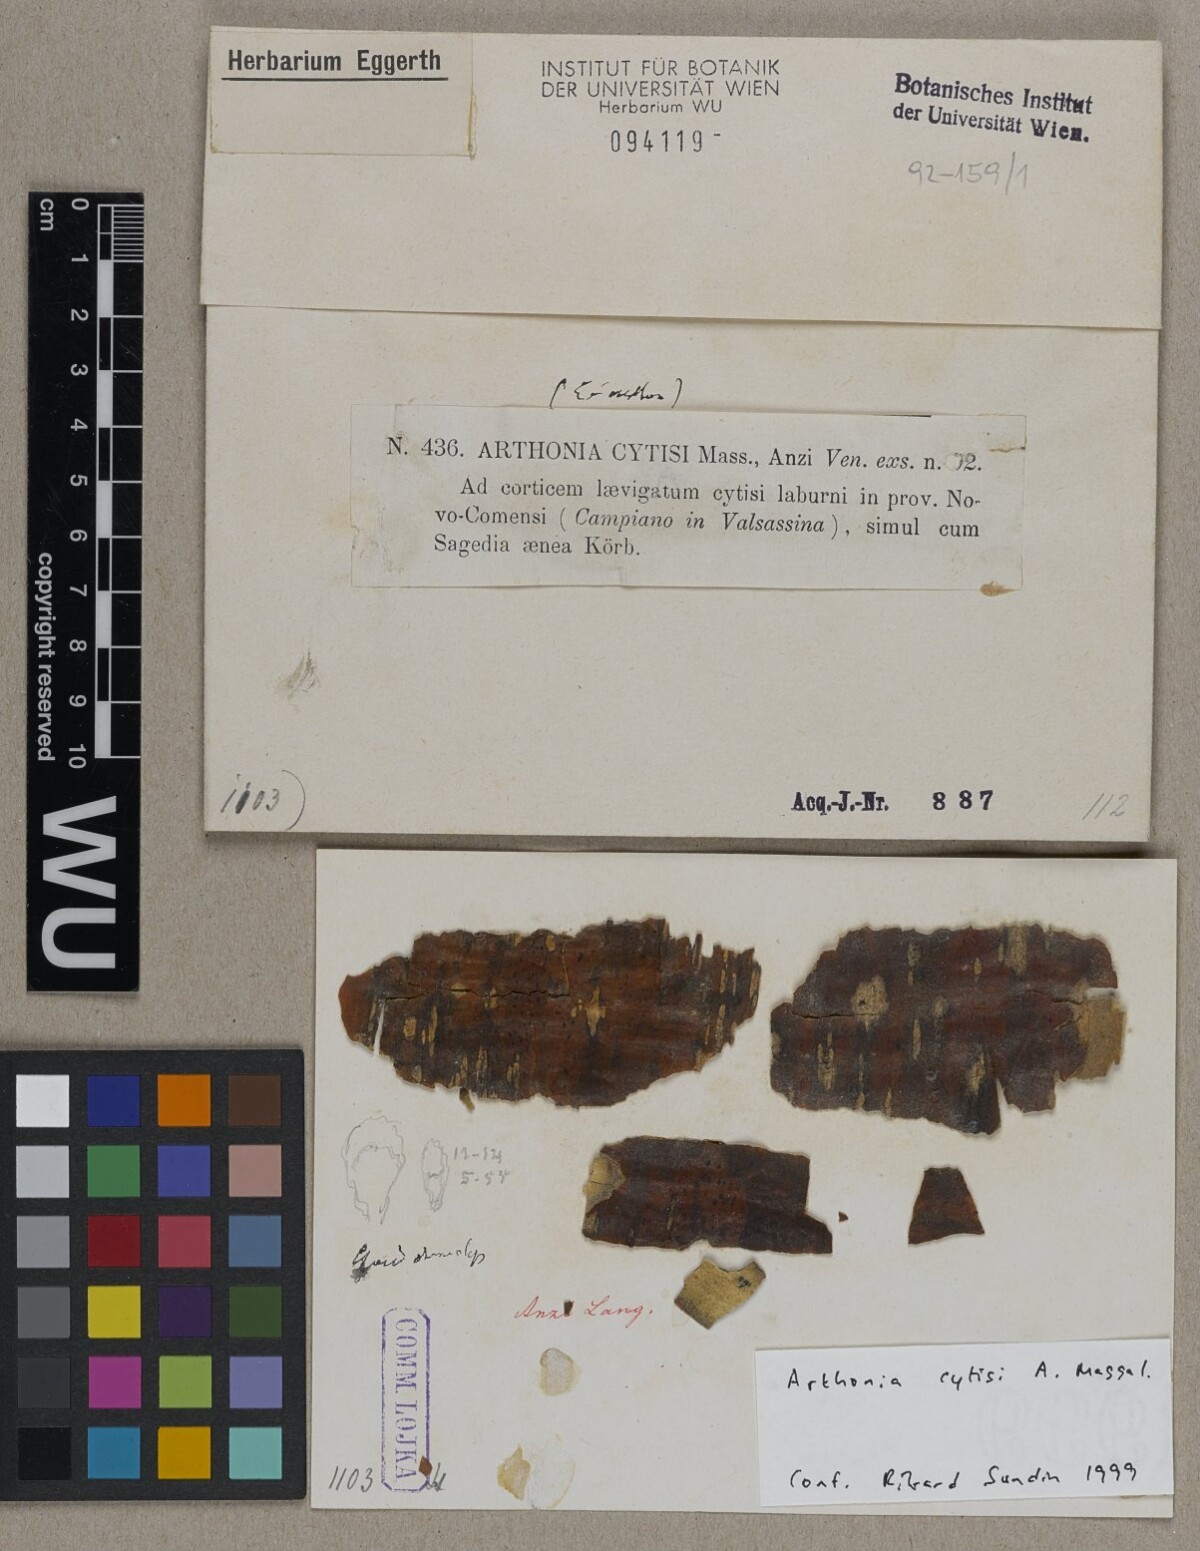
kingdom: Fungi
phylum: Ascomycota
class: Arthoniomycetes
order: Arthoniales
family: Arthoniaceae
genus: Naevia
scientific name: Naevia dispersa
